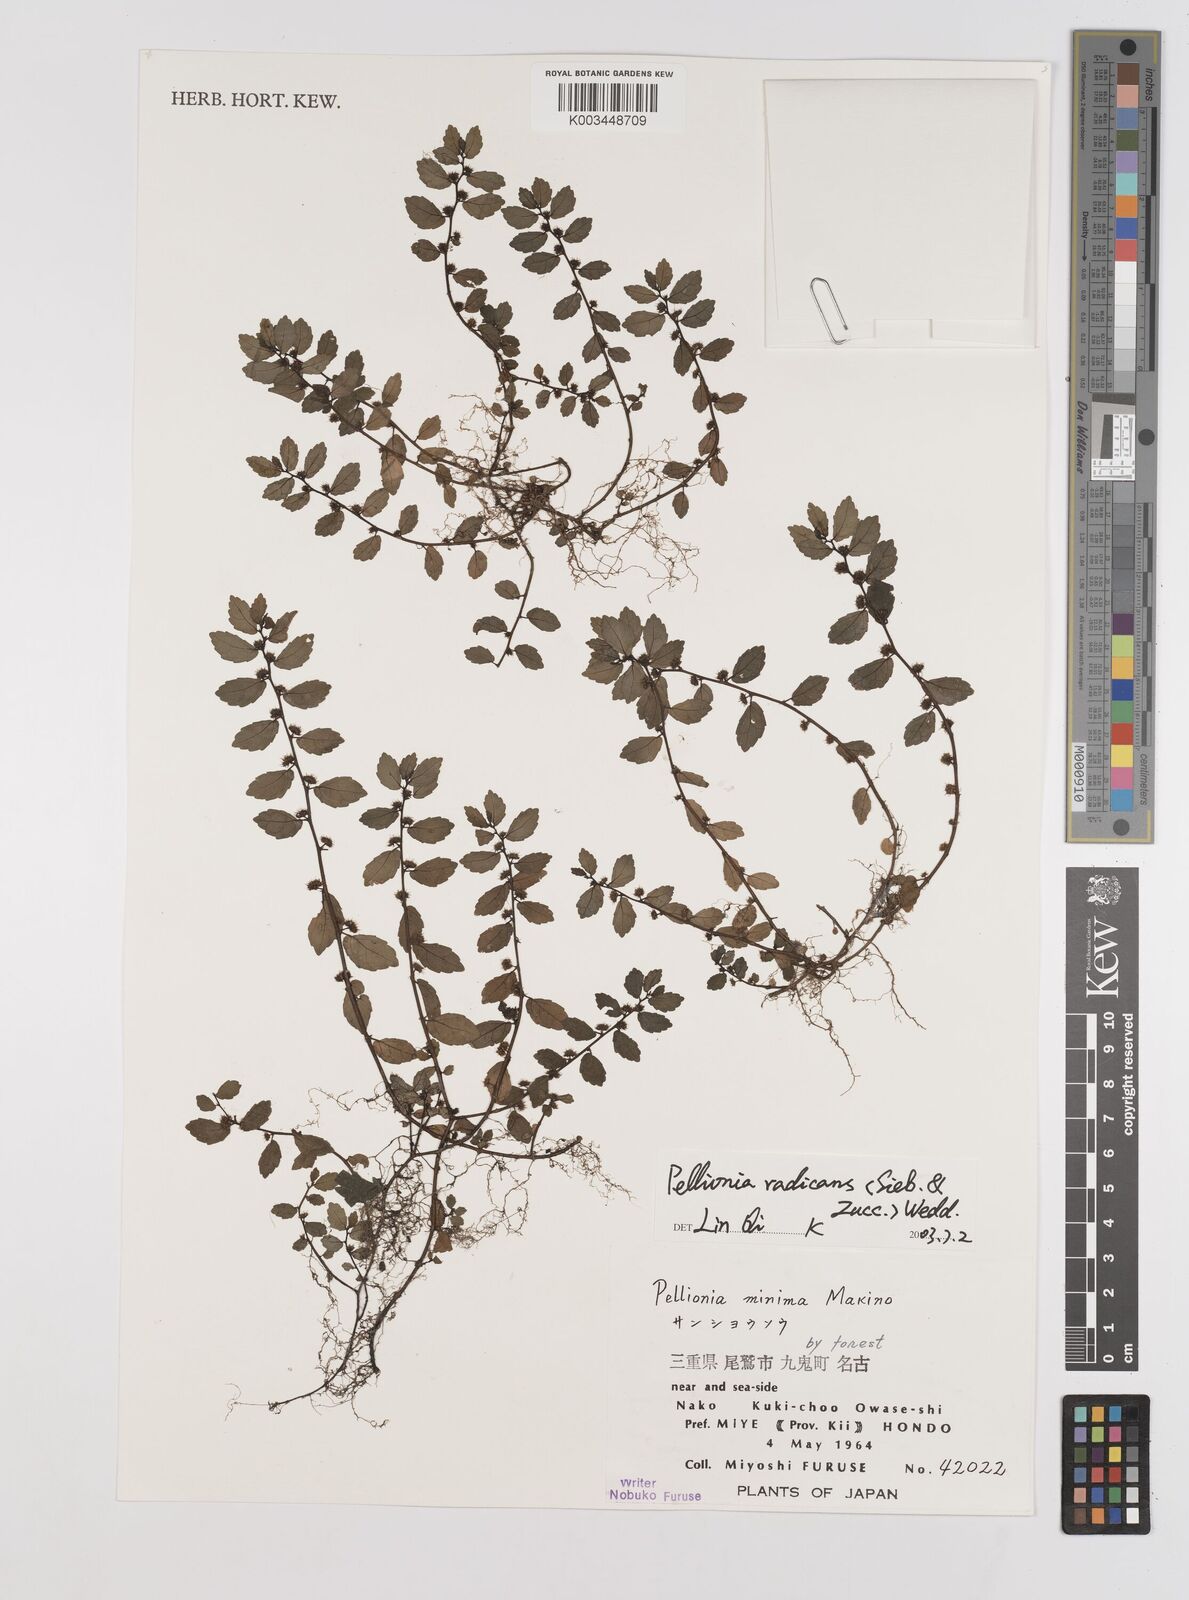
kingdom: Plantae
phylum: Tracheophyta
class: Magnoliopsida
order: Rosales
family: Urticaceae
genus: Elatostema
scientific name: Elatostema radicans
